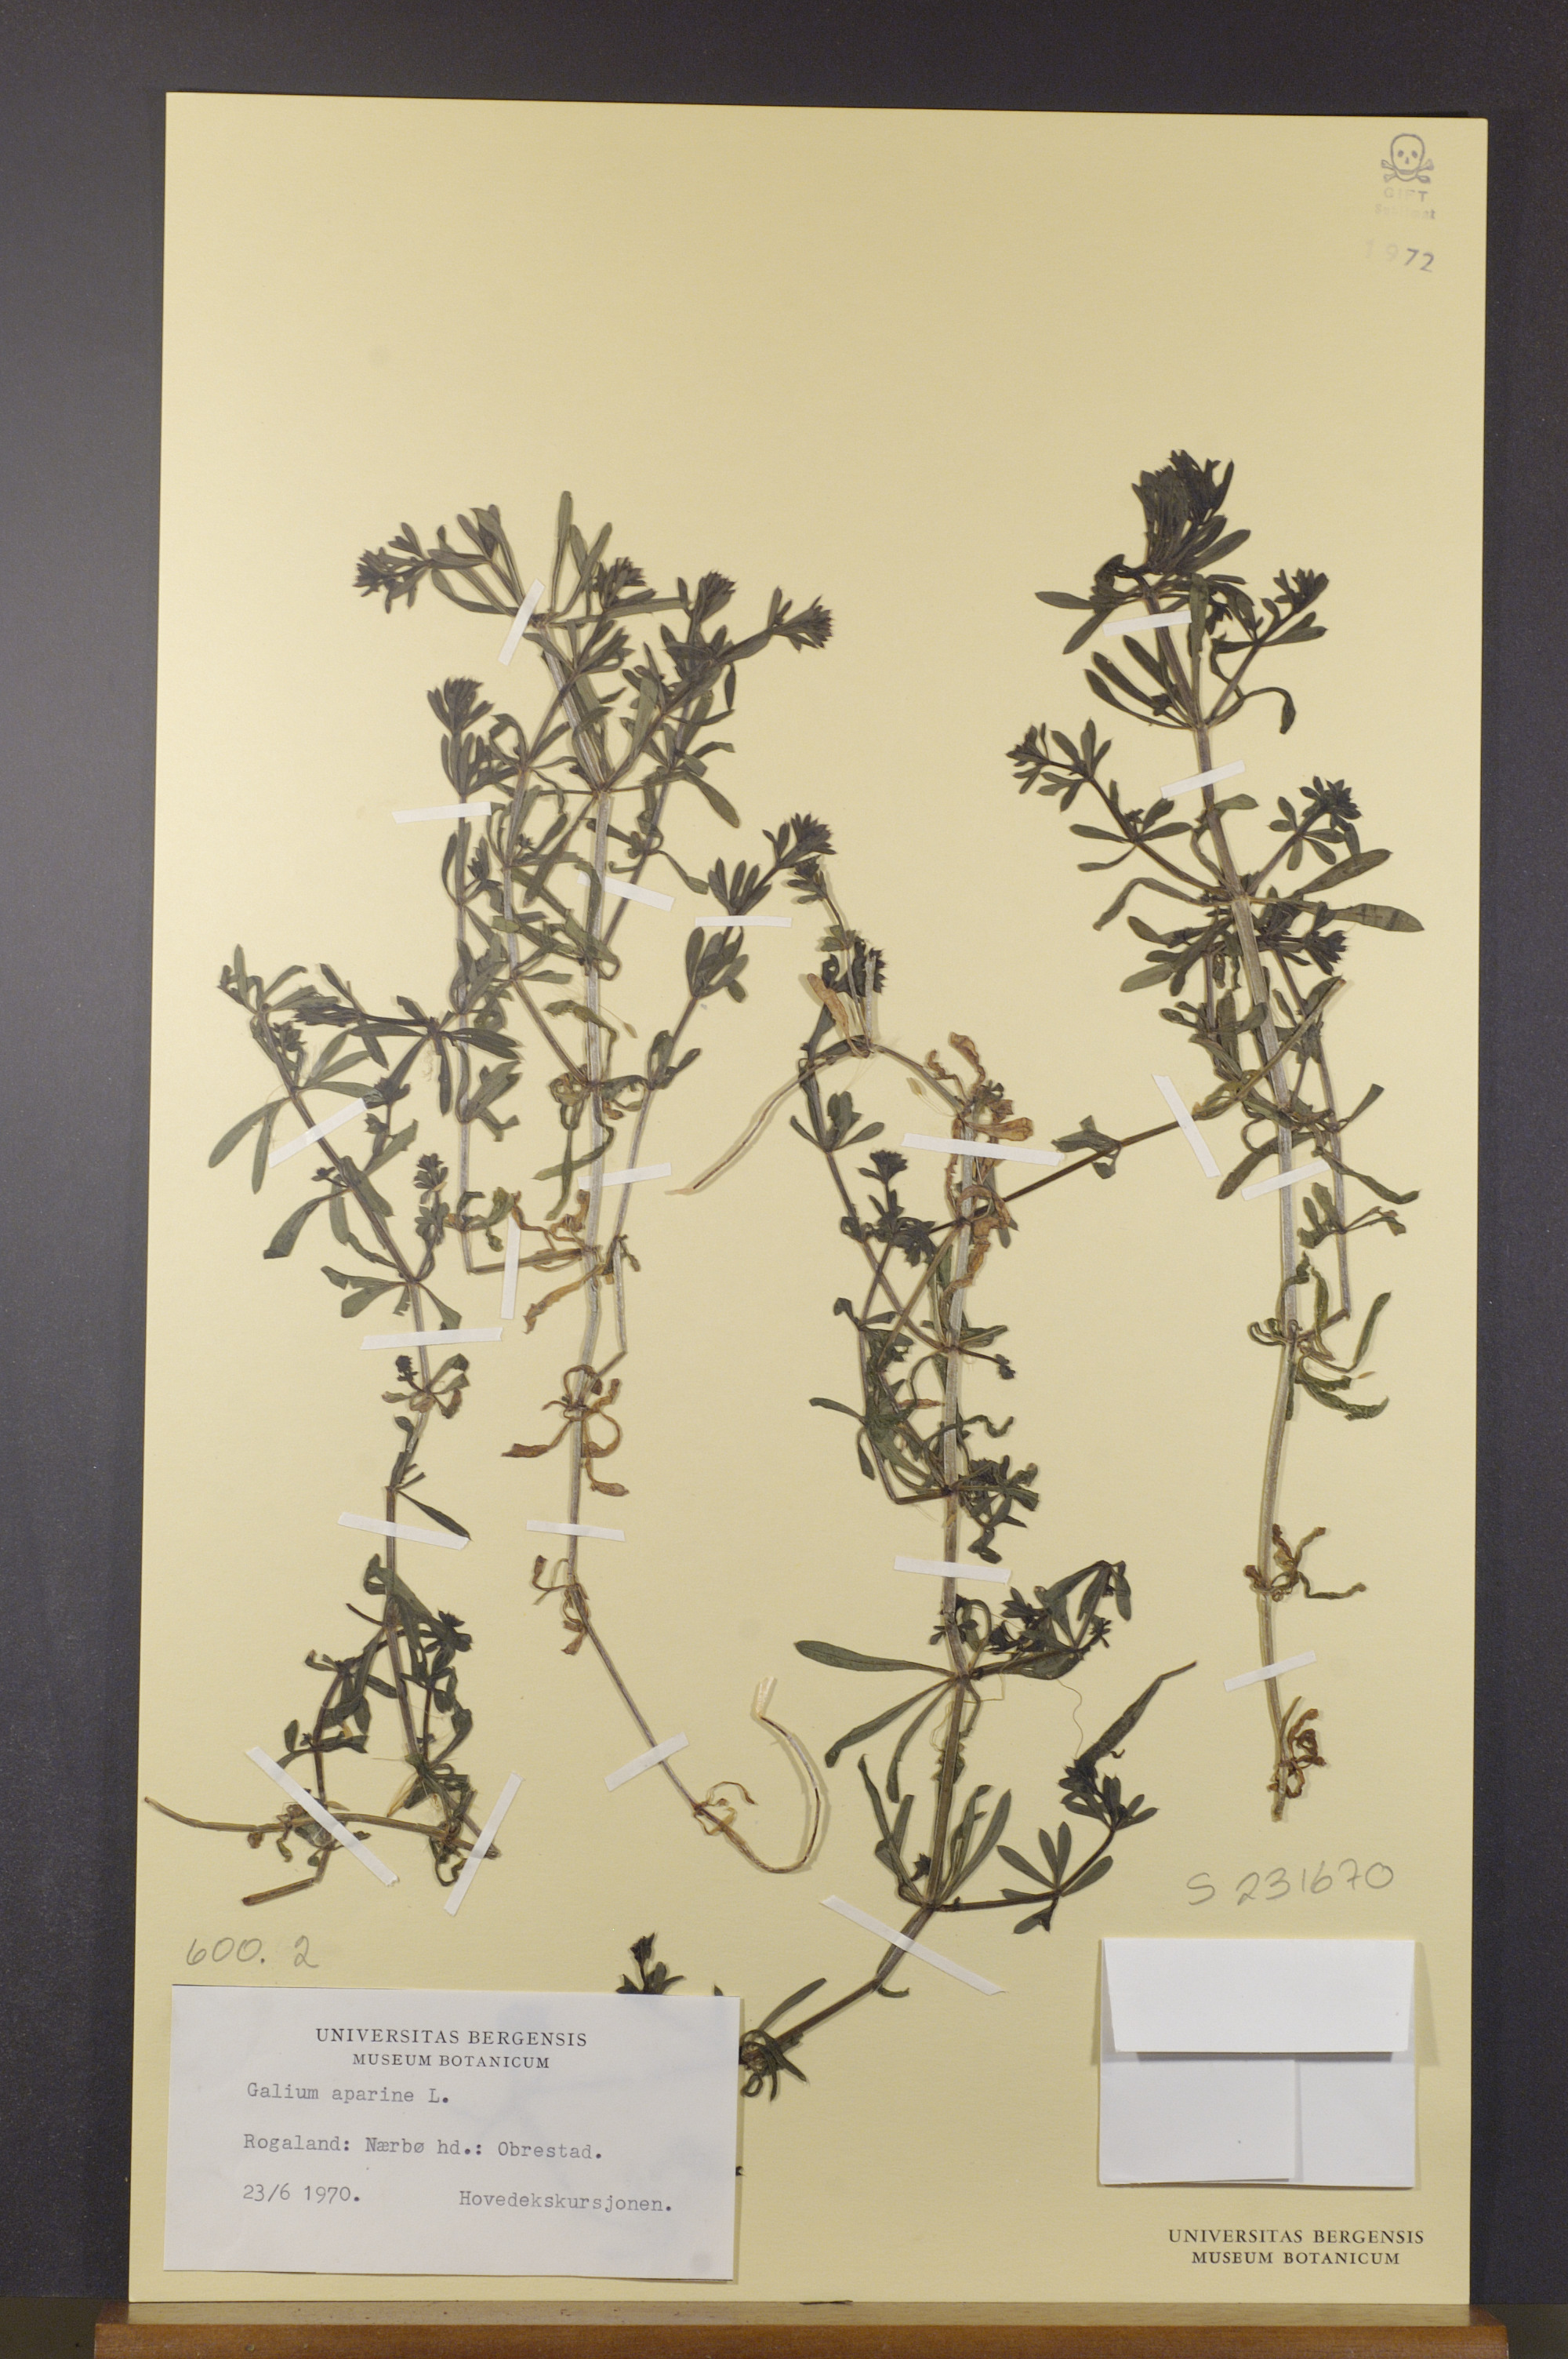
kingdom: Plantae
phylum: Tracheophyta
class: Magnoliopsida
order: Gentianales
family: Rubiaceae
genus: Galium
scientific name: Galium aparine
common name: Cleavers
